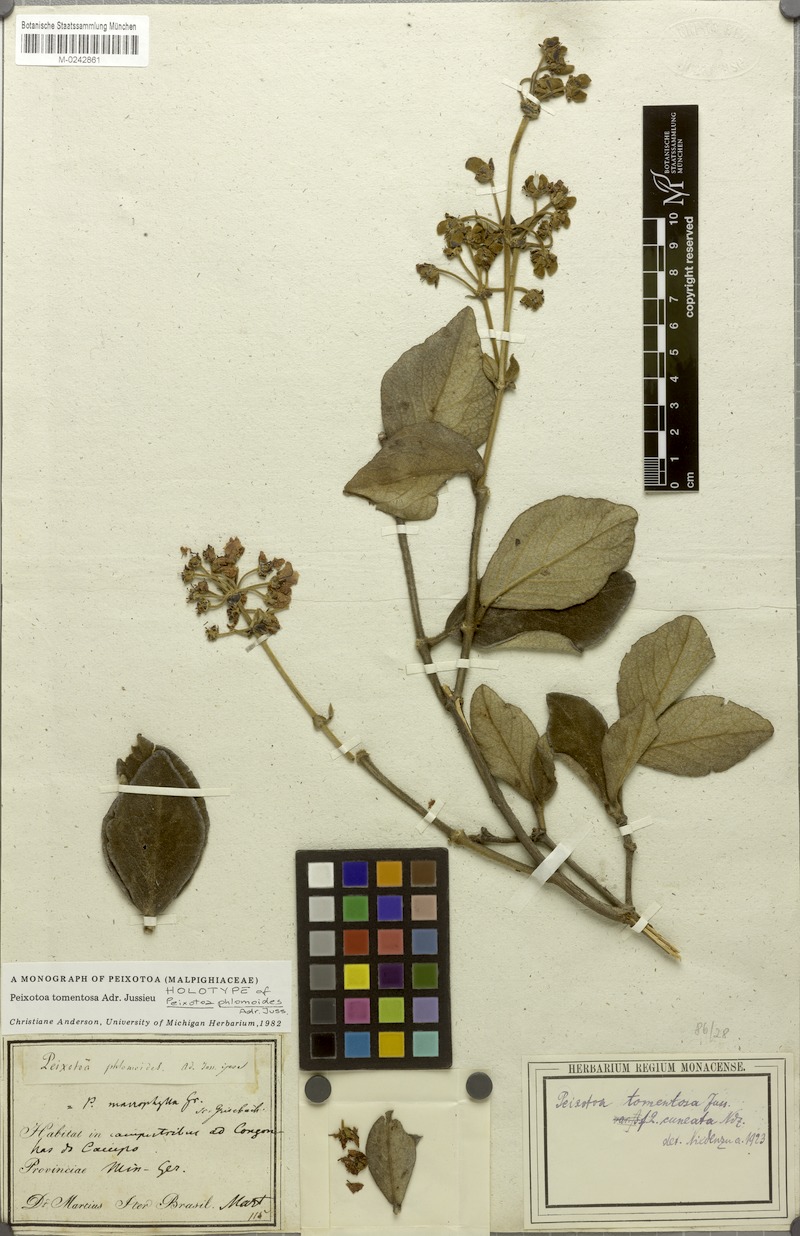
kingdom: Plantae
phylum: Tracheophyta
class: Magnoliopsida
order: Malpighiales
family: Malpighiaceae
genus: Peixotoa
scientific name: Peixotoa tomentosa
